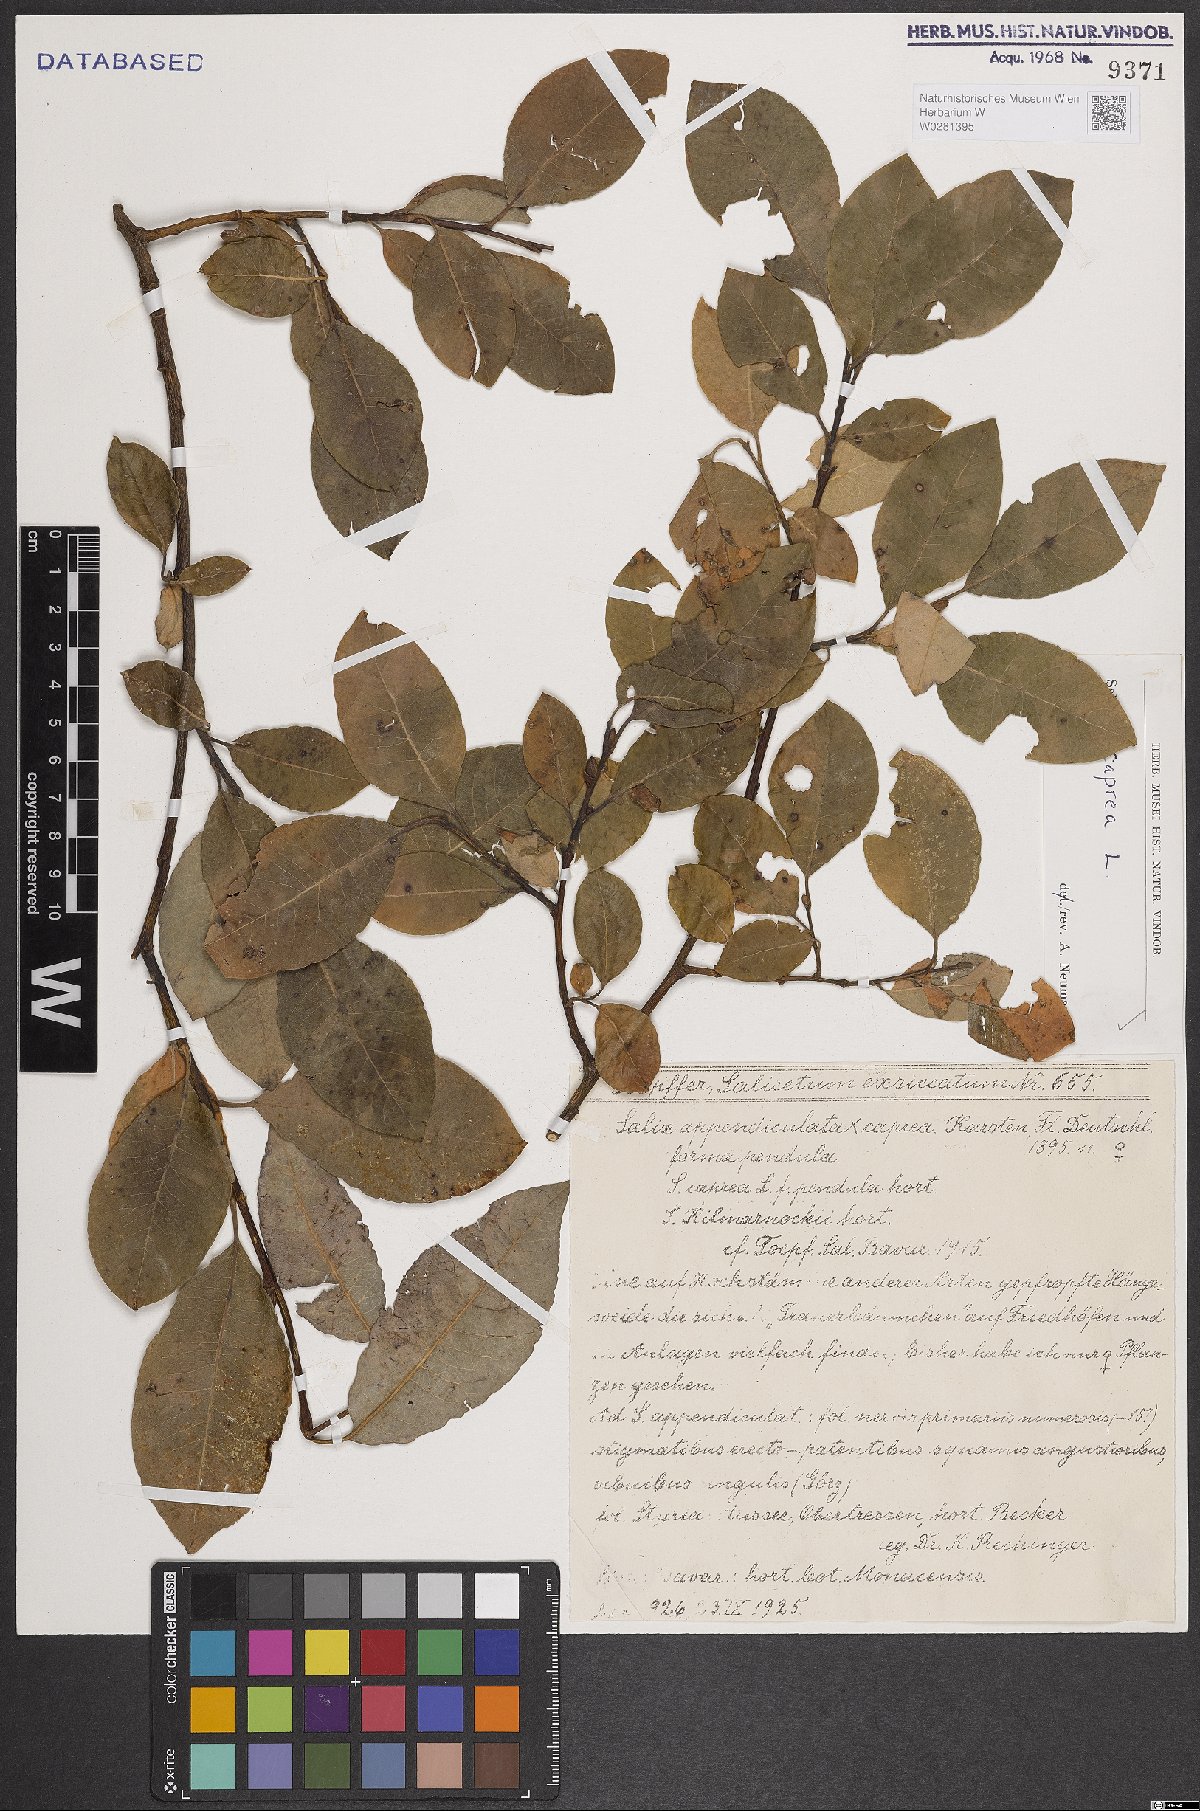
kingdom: Plantae
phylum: Tracheophyta
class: Magnoliopsida
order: Malpighiales
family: Salicaceae
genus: Salix
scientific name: Salix caprea
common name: Goat willow
